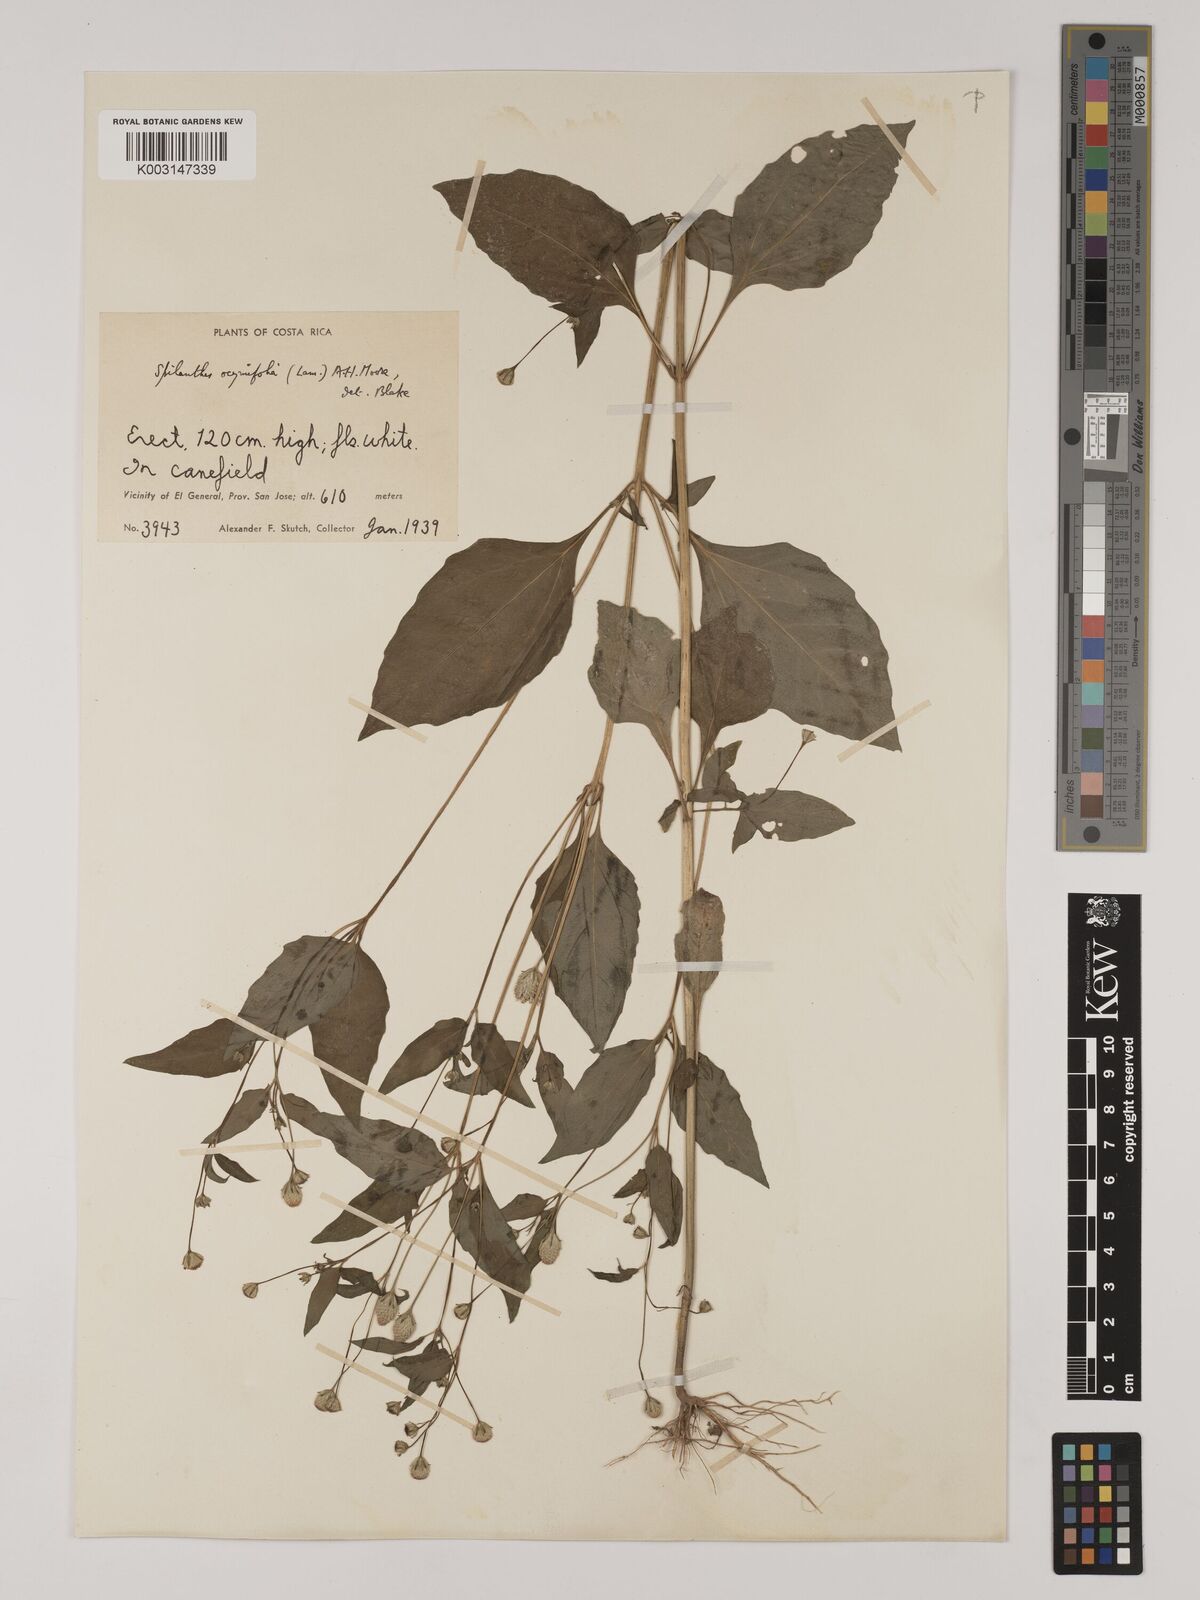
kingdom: Plantae
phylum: Tracheophyta
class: Magnoliopsida
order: Asterales
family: Asteraceae
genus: Acmella
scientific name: Acmella radicans
